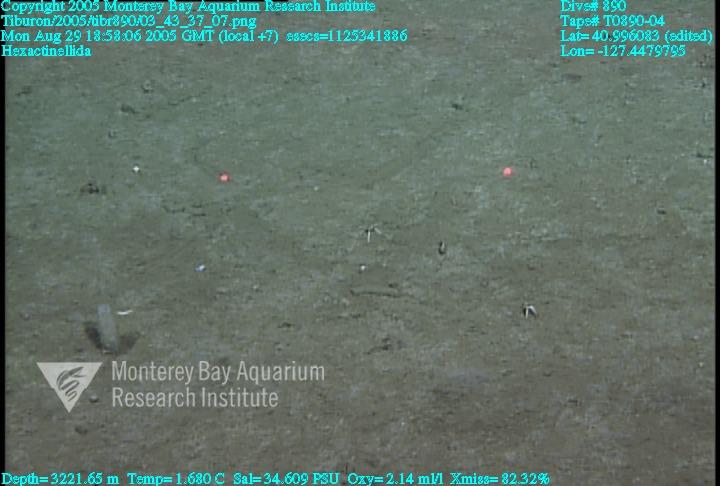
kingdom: Animalia
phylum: Porifera
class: Hexactinellida
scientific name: Hexactinellida
